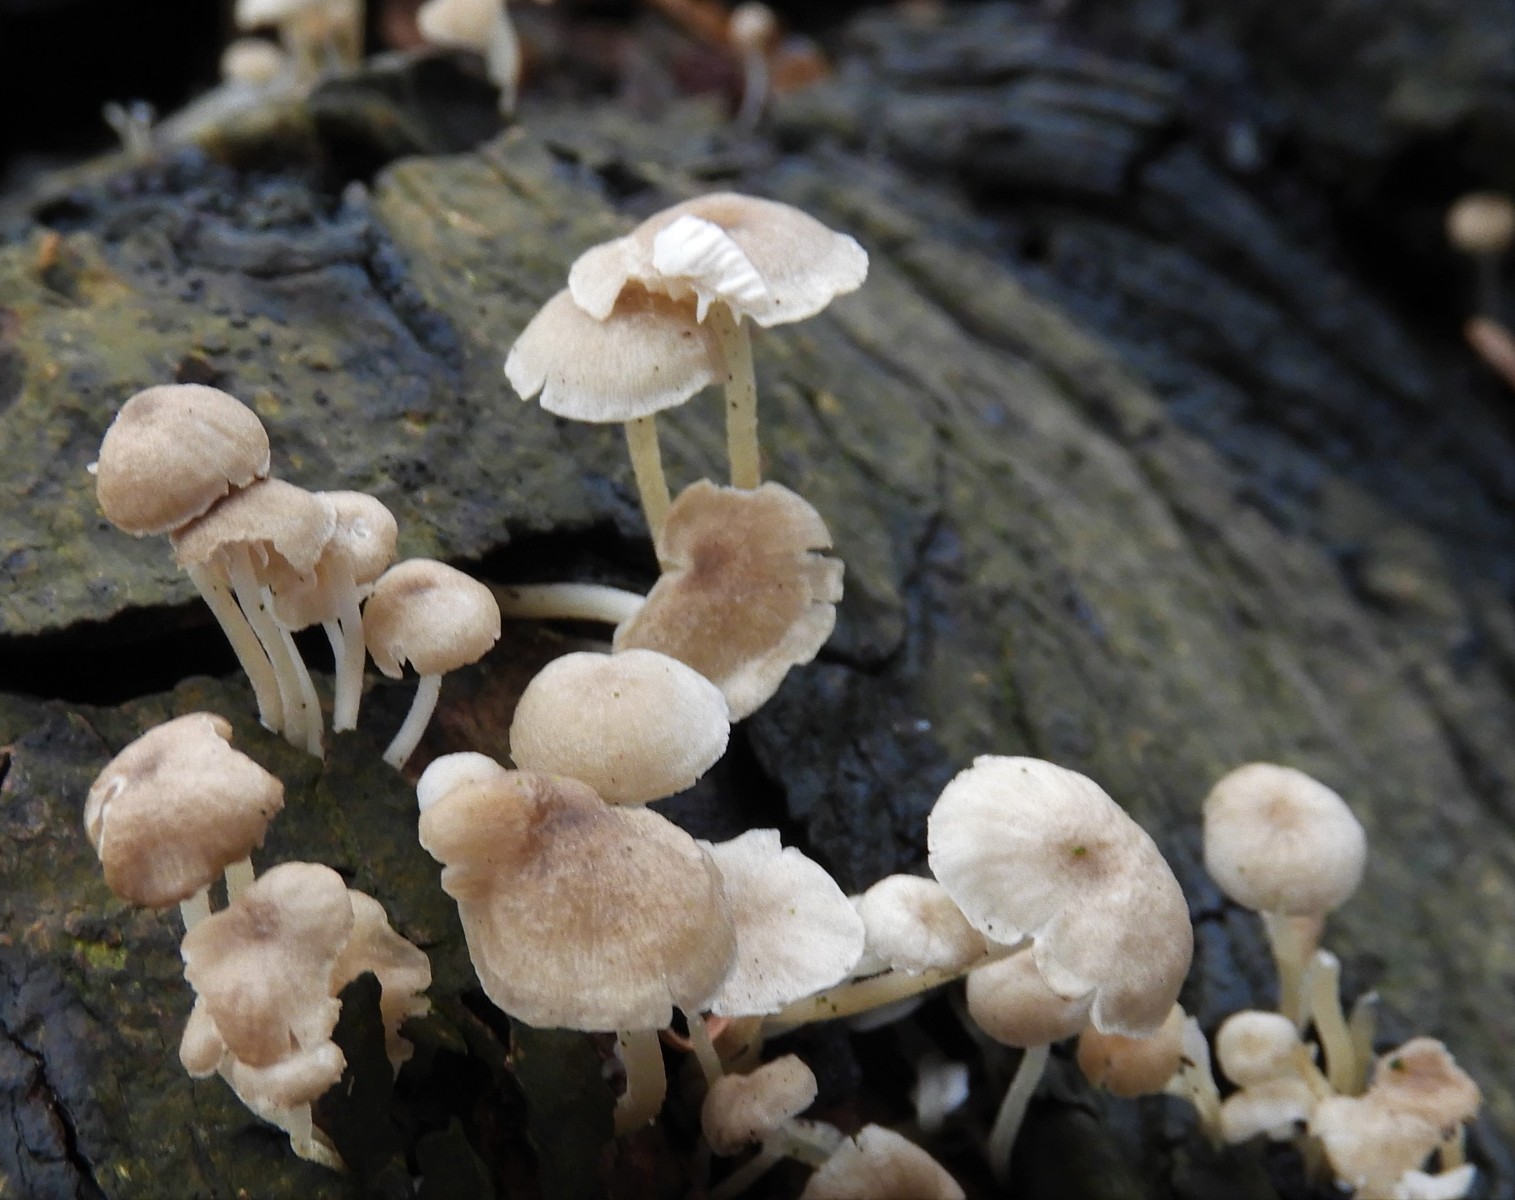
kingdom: Fungi
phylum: Basidiomycota
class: Agaricomycetes
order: Agaricales
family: Omphalotaceae
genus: Collybiopsis
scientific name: Collybiopsis ramealis
